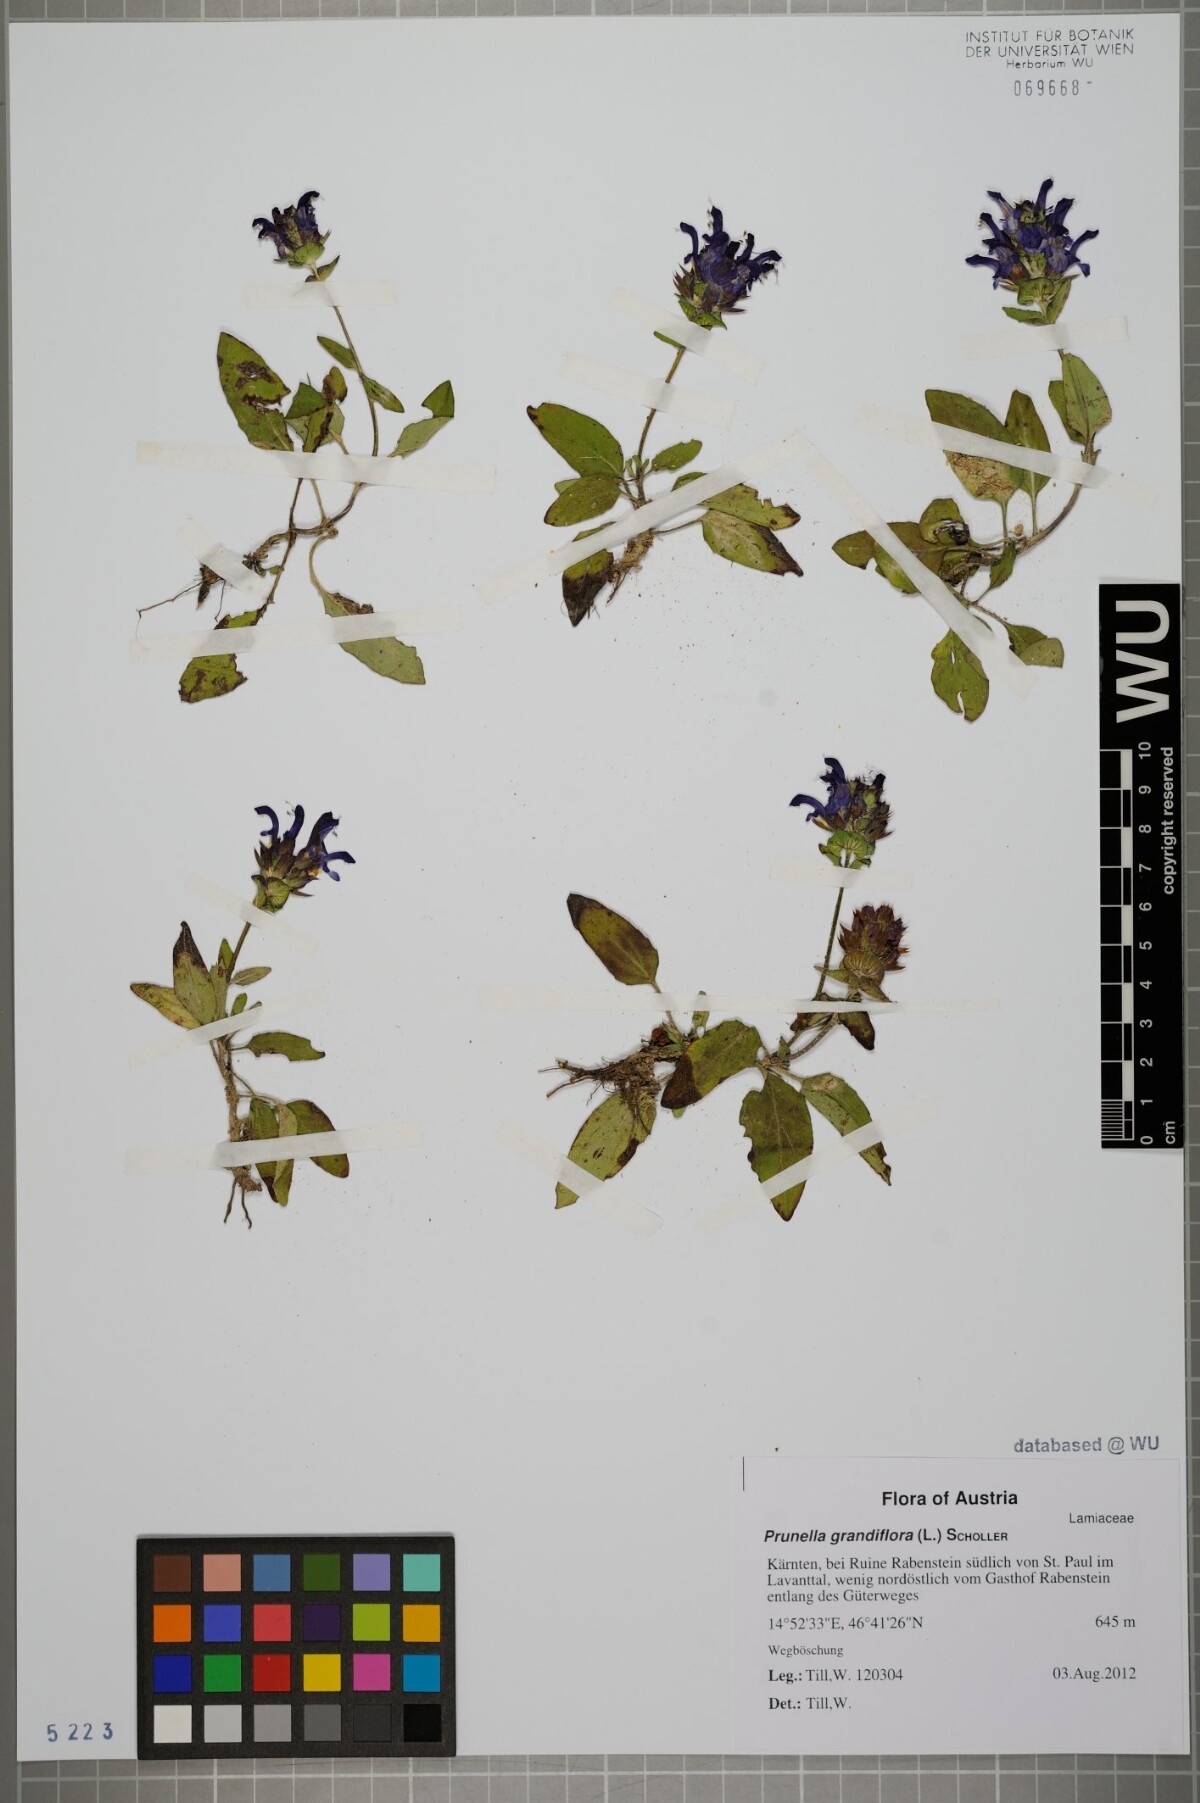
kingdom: Plantae
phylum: Tracheophyta
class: Magnoliopsida
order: Lamiales
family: Lamiaceae
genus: Prunella
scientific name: Prunella grandiflora
